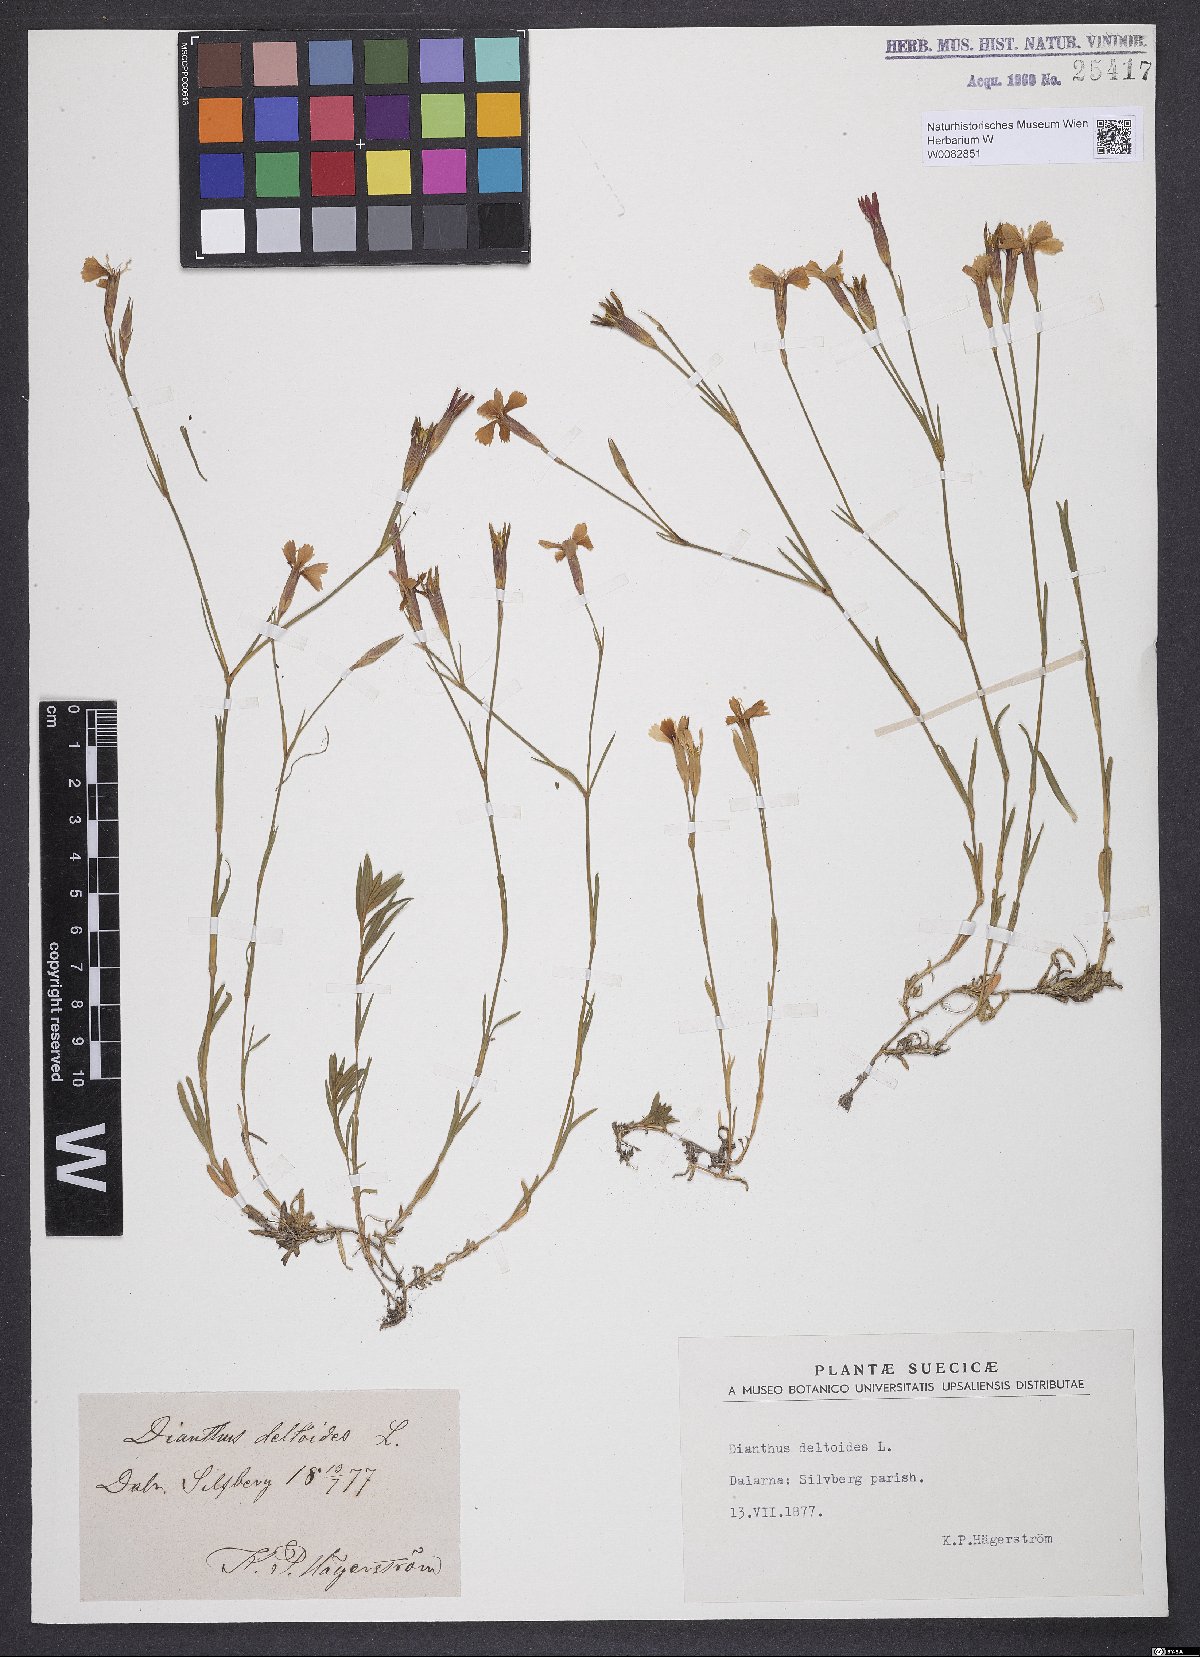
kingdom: Plantae
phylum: Tracheophyta
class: Magnoliopsida
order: Caryophyllales
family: Caryophyllaceae
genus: Dianthus
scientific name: Dianthus deltoides
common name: Maiden pink
